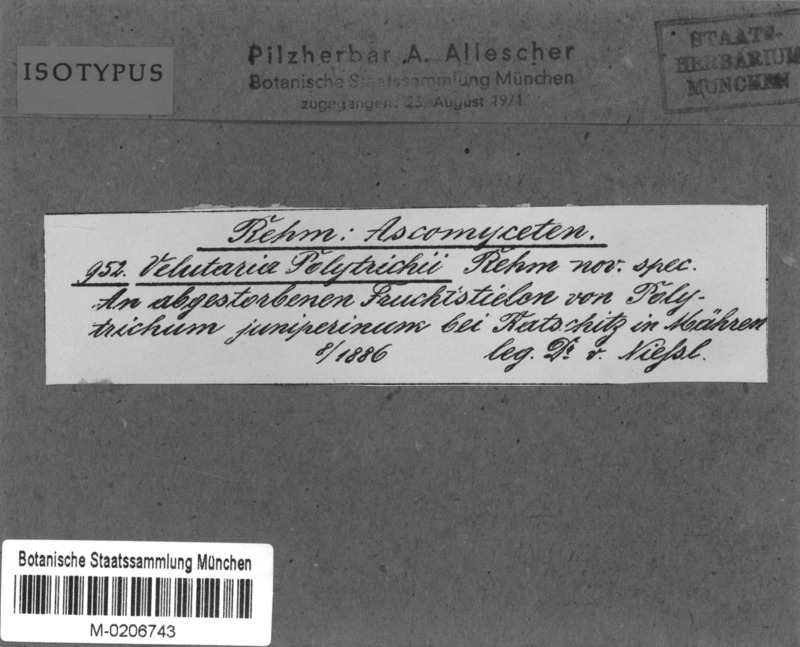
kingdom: Fungi
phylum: Ascomycota
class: Leotiomycetes
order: Helotiales
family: Pezizellaceae
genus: Velutaria
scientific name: Velutaria polytrichi
